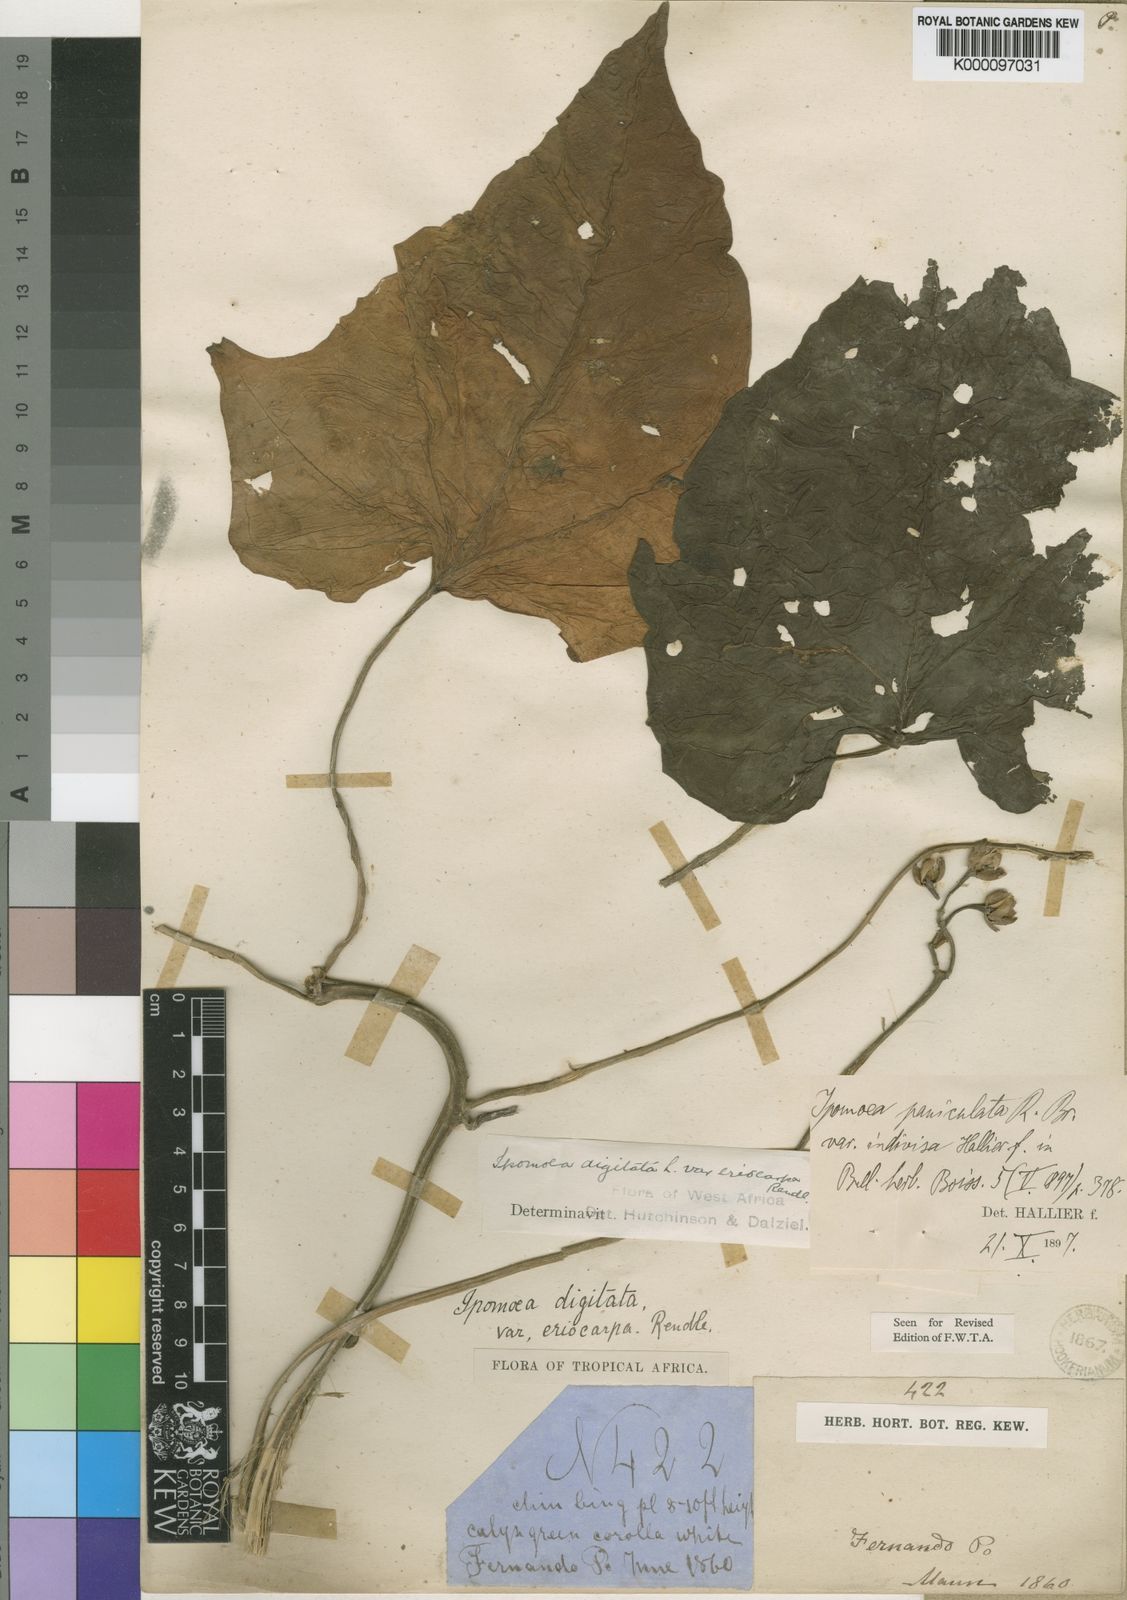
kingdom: Plantae
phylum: Tracheophyta
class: Magnoliopsida
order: Solanales
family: Convolvulaceae
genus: Ipomoea
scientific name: Ipomoea mauritiana
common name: Mauritanian convolvulus
